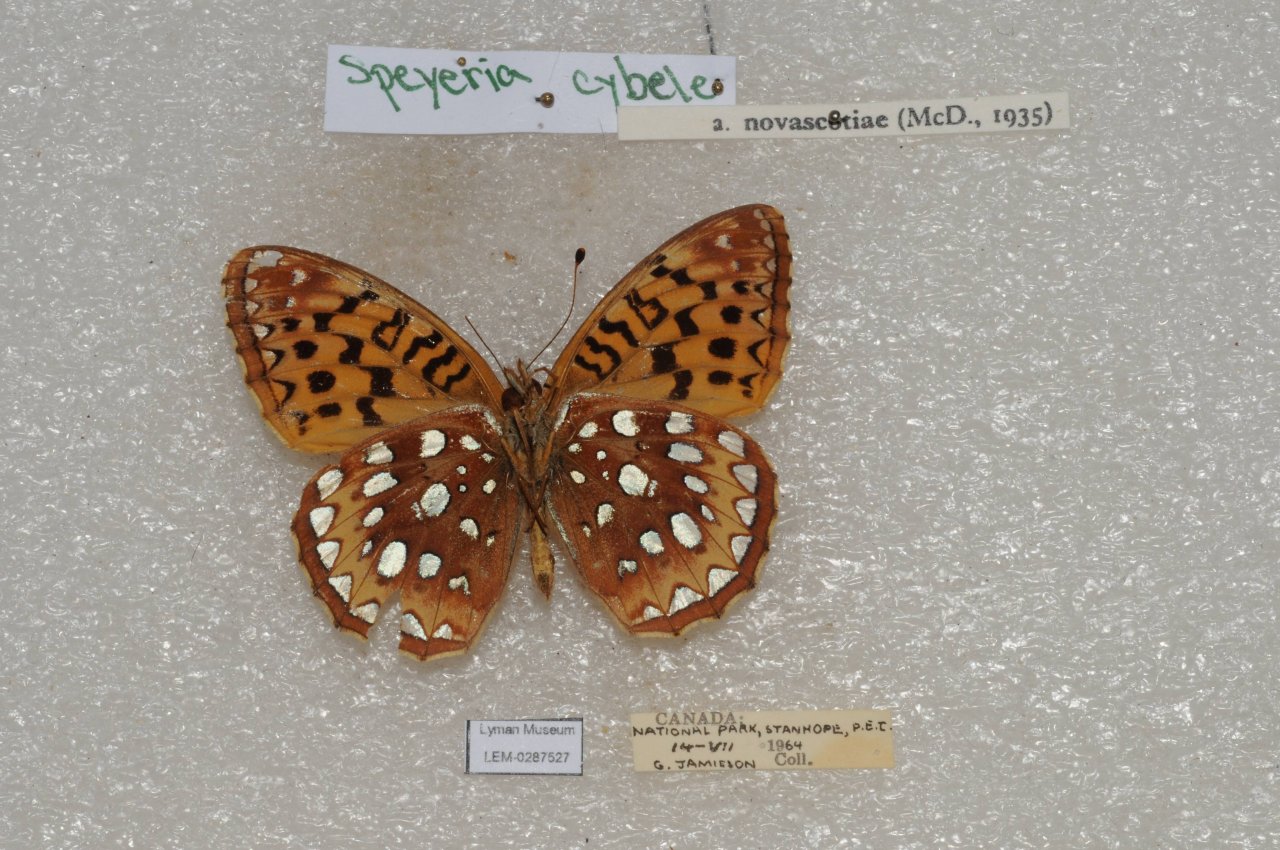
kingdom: Animalia
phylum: Arthropoda
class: Insecta
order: Lepidoptera
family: Nymphalidae
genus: Speyeria
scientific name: Speyeria cybele
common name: Great Spangled Fritillary
